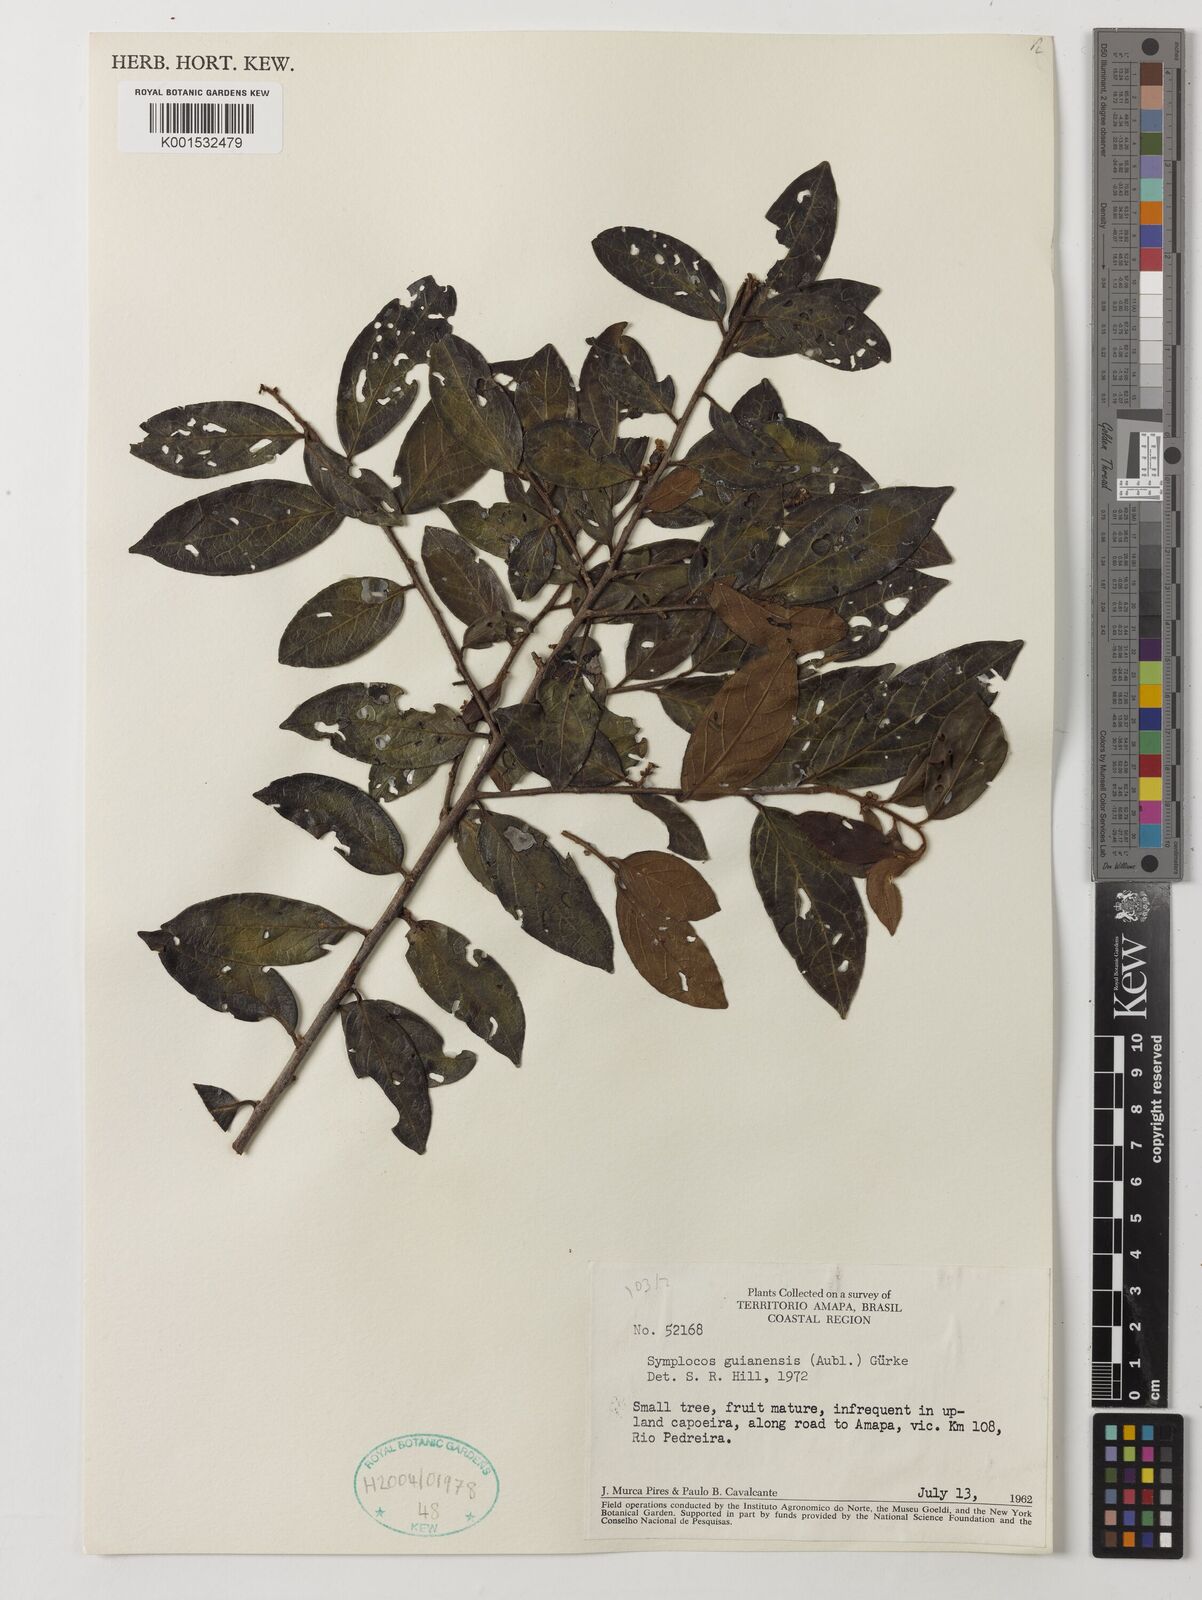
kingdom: Plantae
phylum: Tracheophyta
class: Magnoliopsida
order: Ericales
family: Symplocaceae
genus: Symplocos
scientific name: Symplocos guianensis
